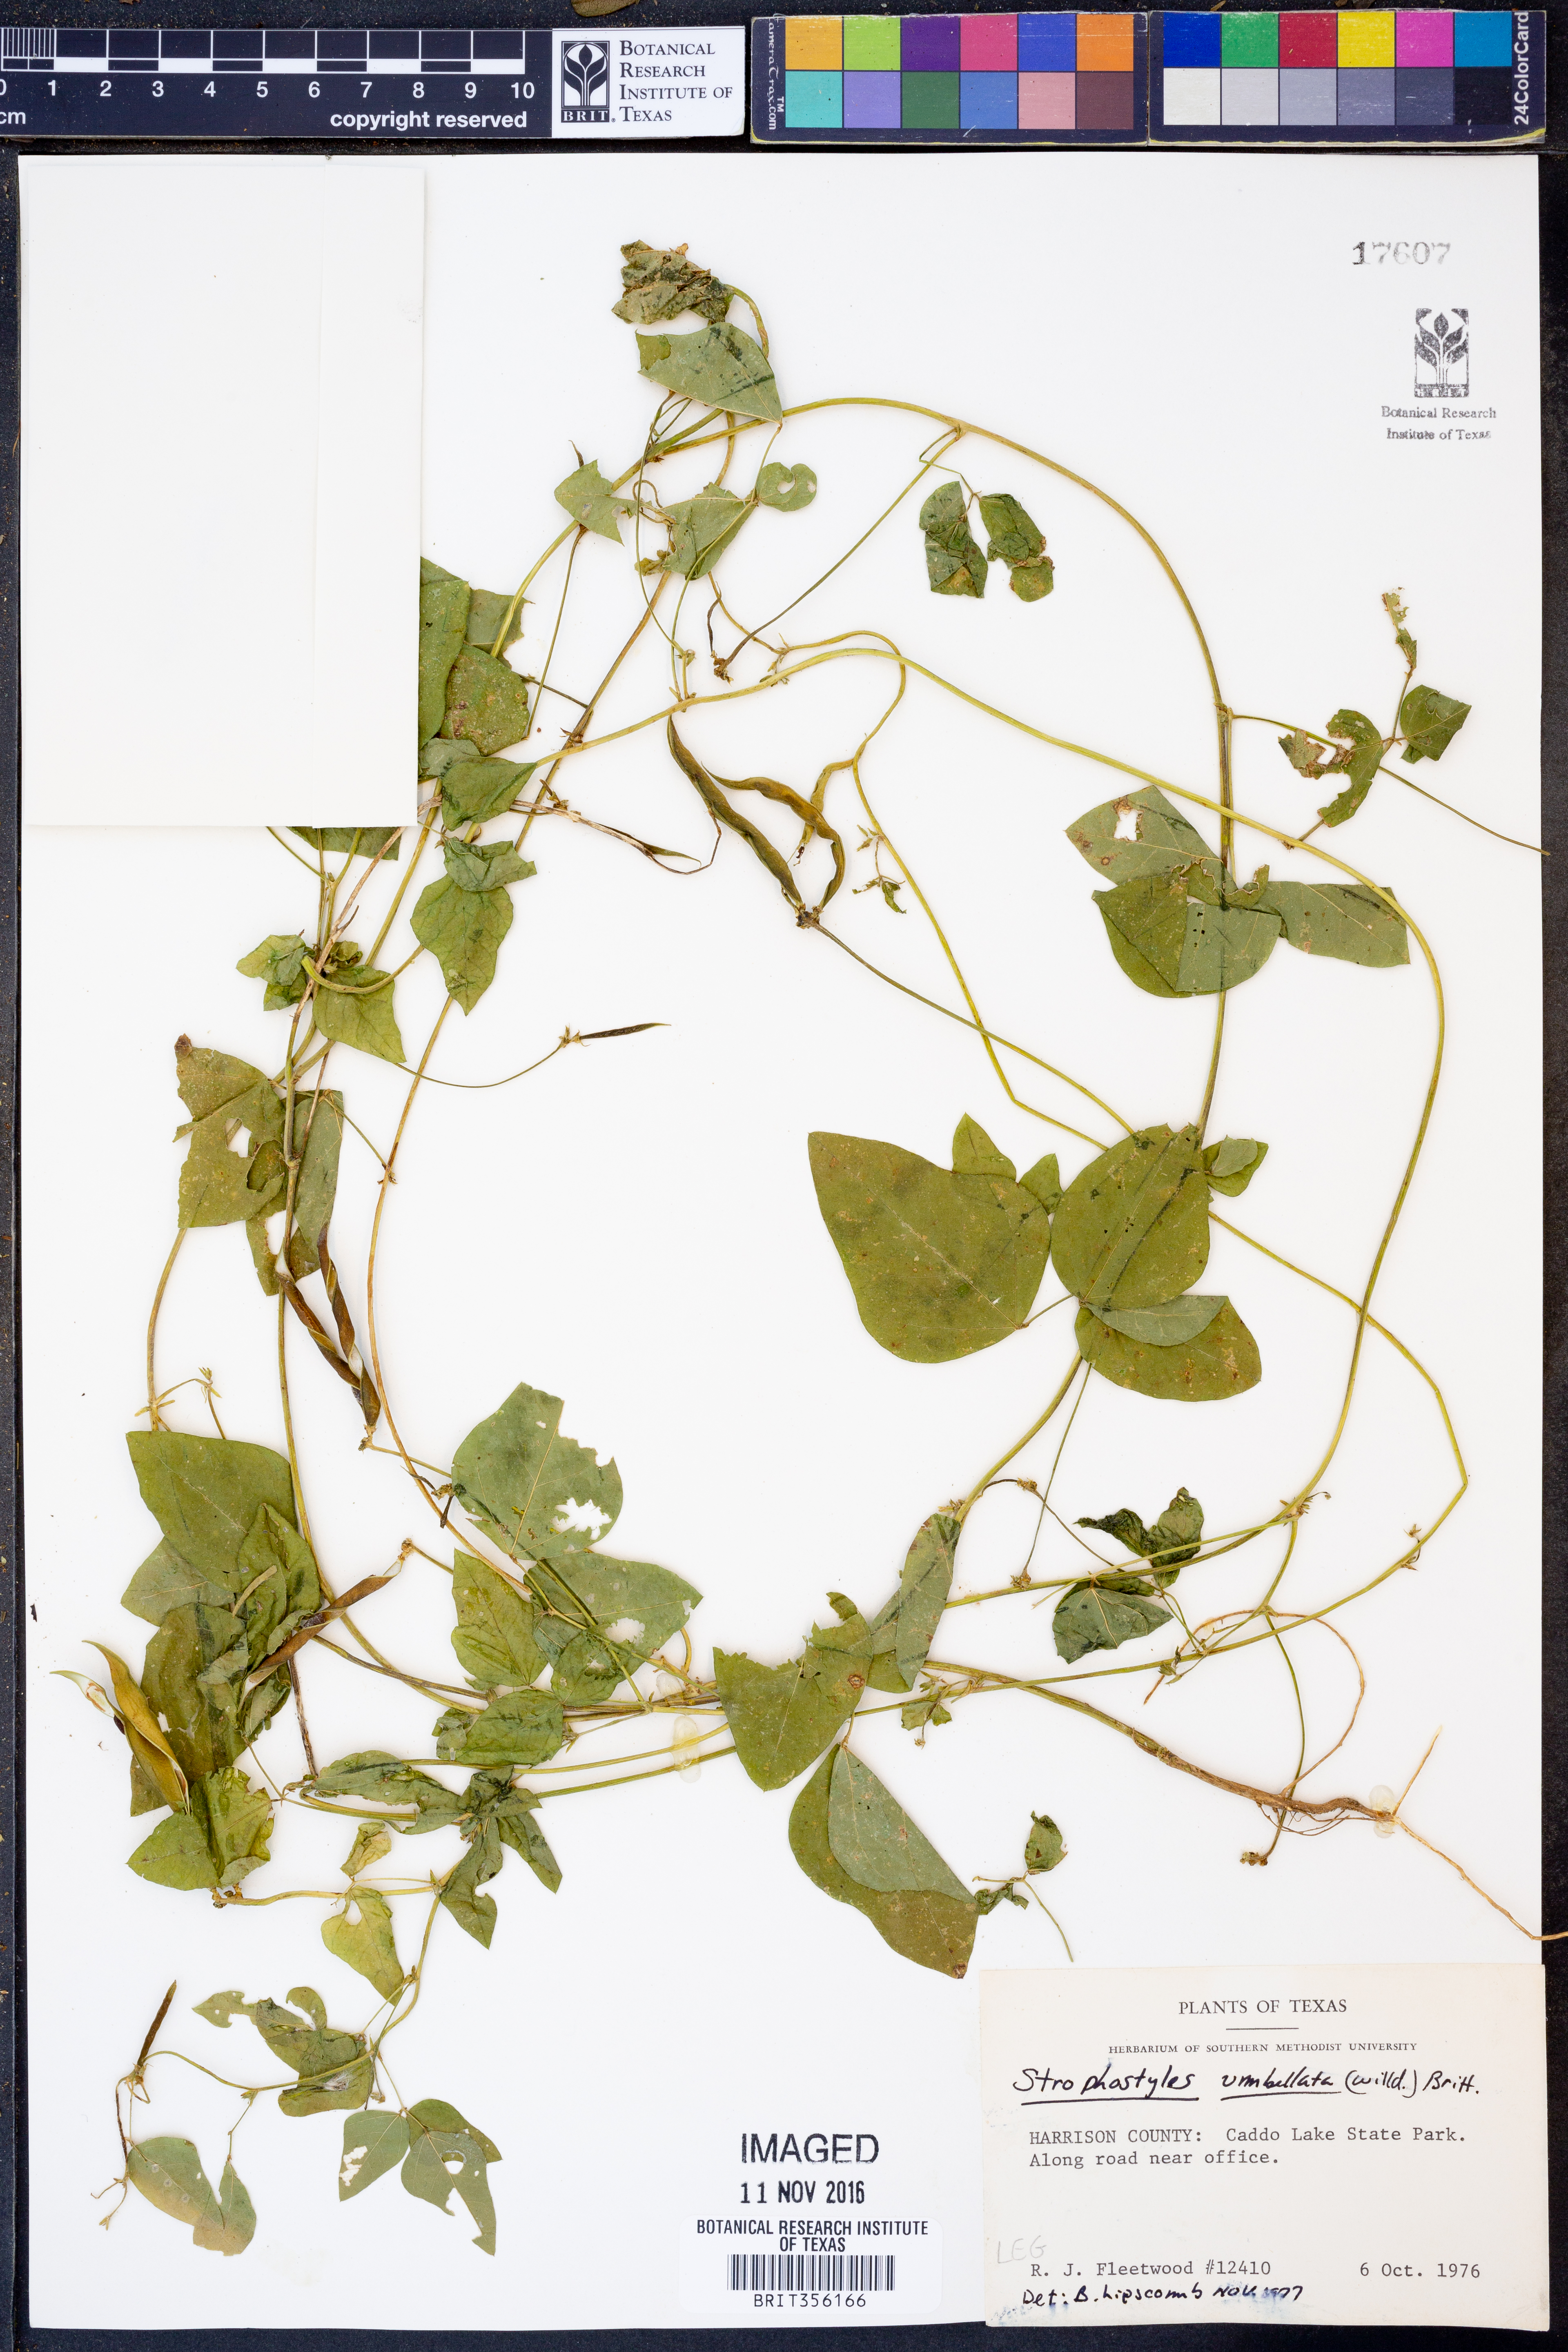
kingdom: Plantae
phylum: Tracheophyta
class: Magnoliopsida
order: Fabales
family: Fabaceae
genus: Strophostyles
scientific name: Strophostyles umbellata
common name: Perennial wild bean
